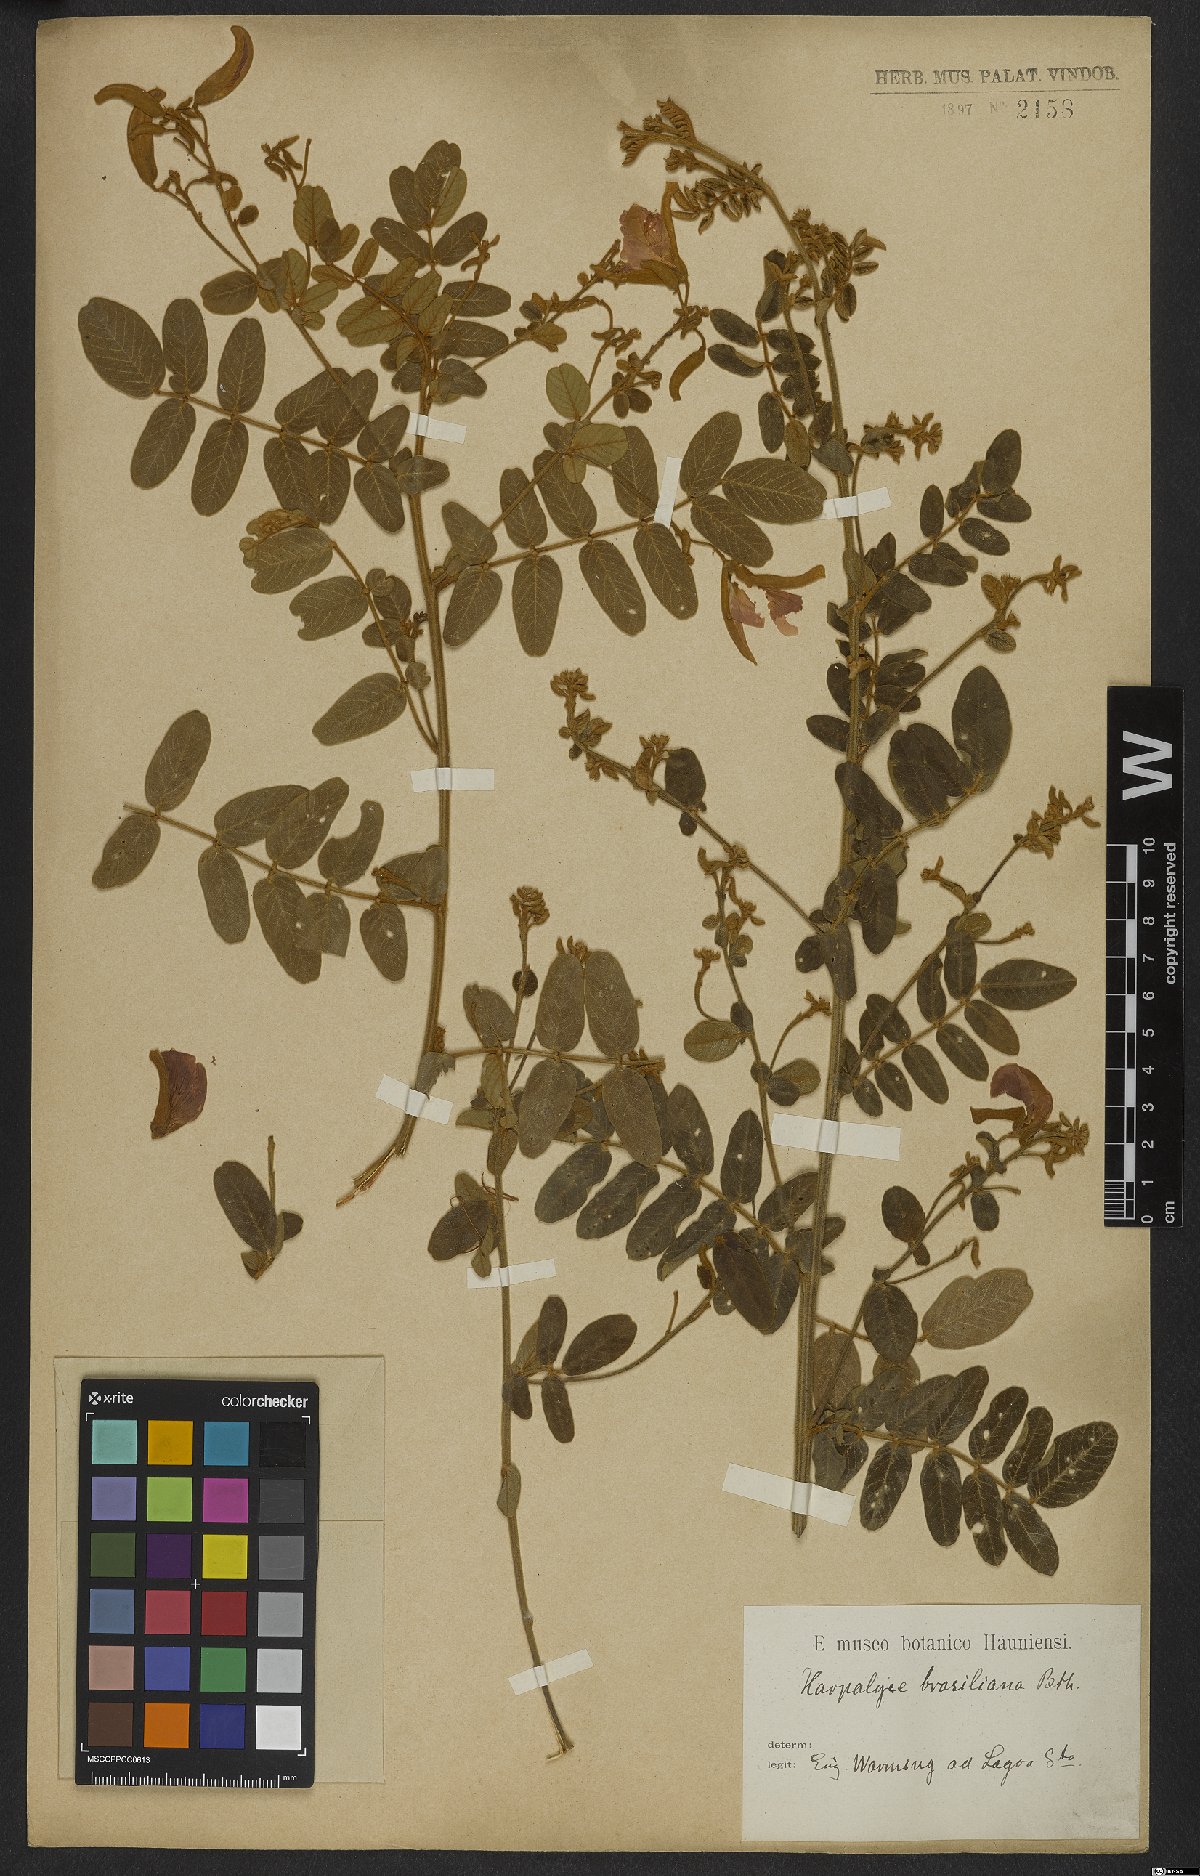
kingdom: Plantae
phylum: Tracheophyta
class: Magnoliopsida
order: Fabales
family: Fabaceae
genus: Harpalyce
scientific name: Harpalyce brasiliana
